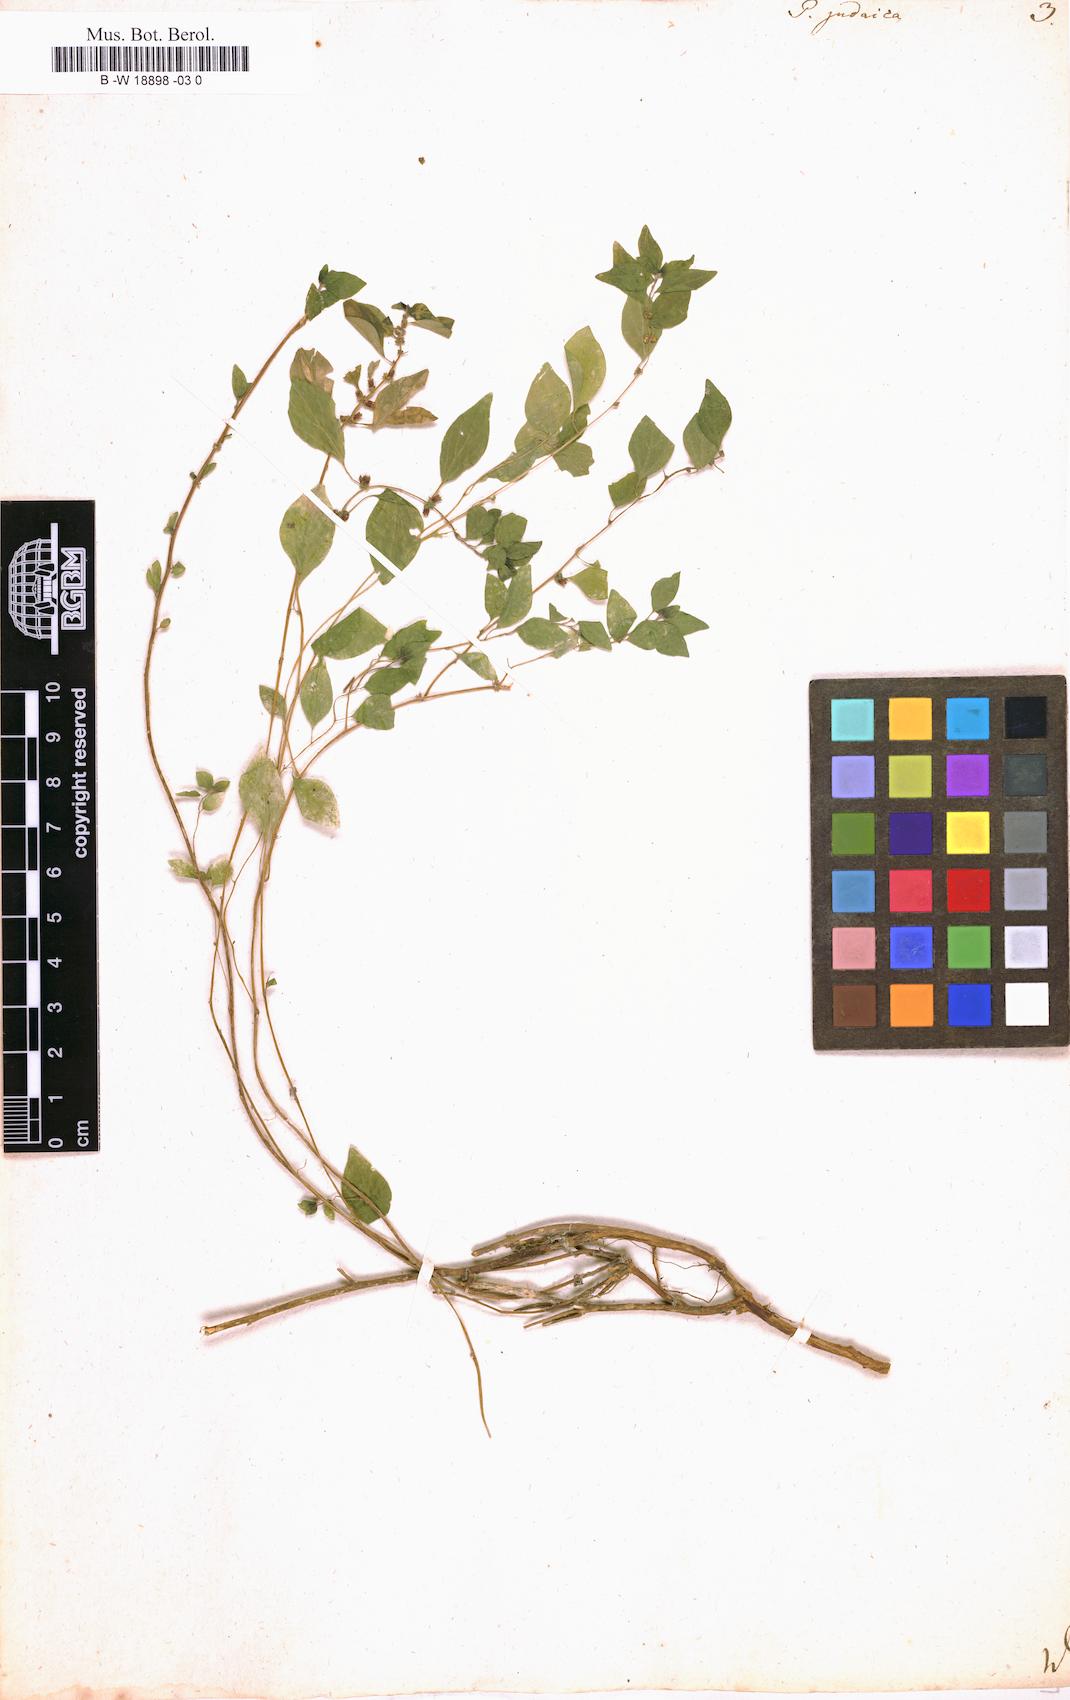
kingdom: Plantae
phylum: Tracheophyta
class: Magnoliopsida
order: Rosales
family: Urticaceae
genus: Parietaria
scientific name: Parietaria judaica
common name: Pellitory-of-the-wall
